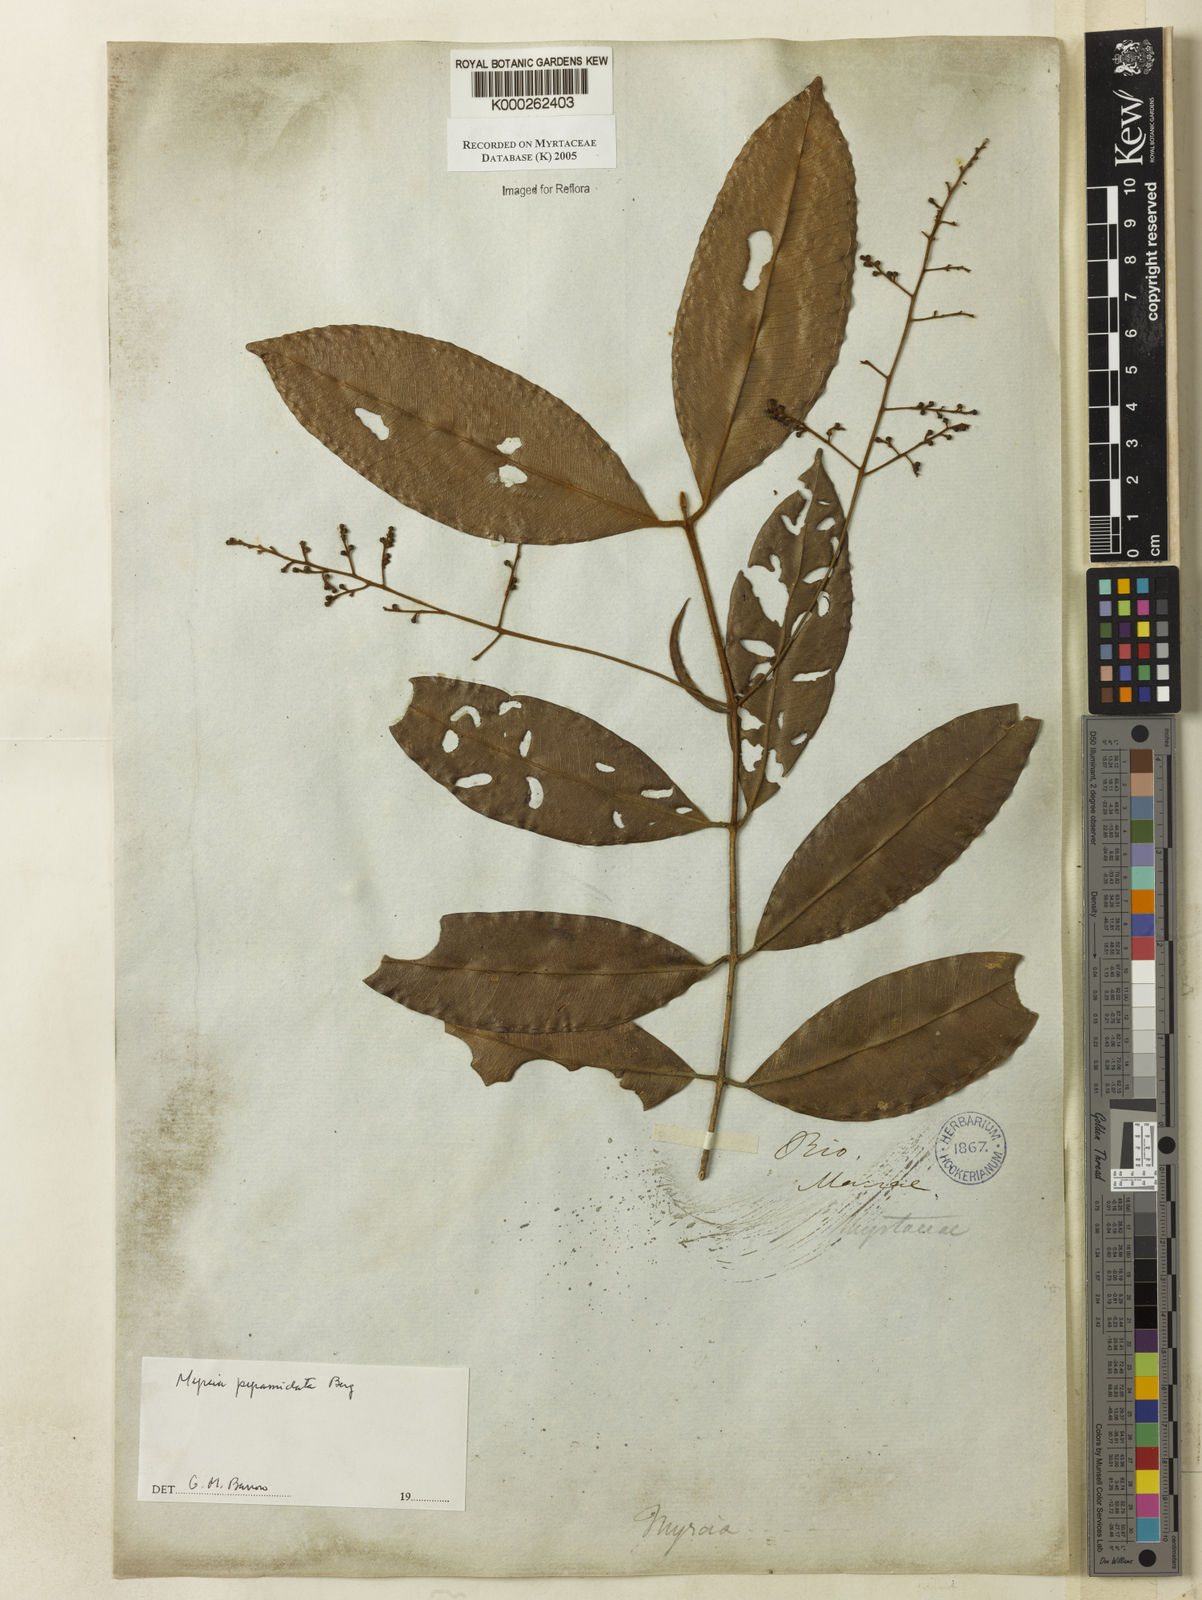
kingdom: Plantae
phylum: Tracheophyta
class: Magnoliopsida
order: Myrtales
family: Myrtaceae
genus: Myrcia
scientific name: Myrcia rubiginosa
